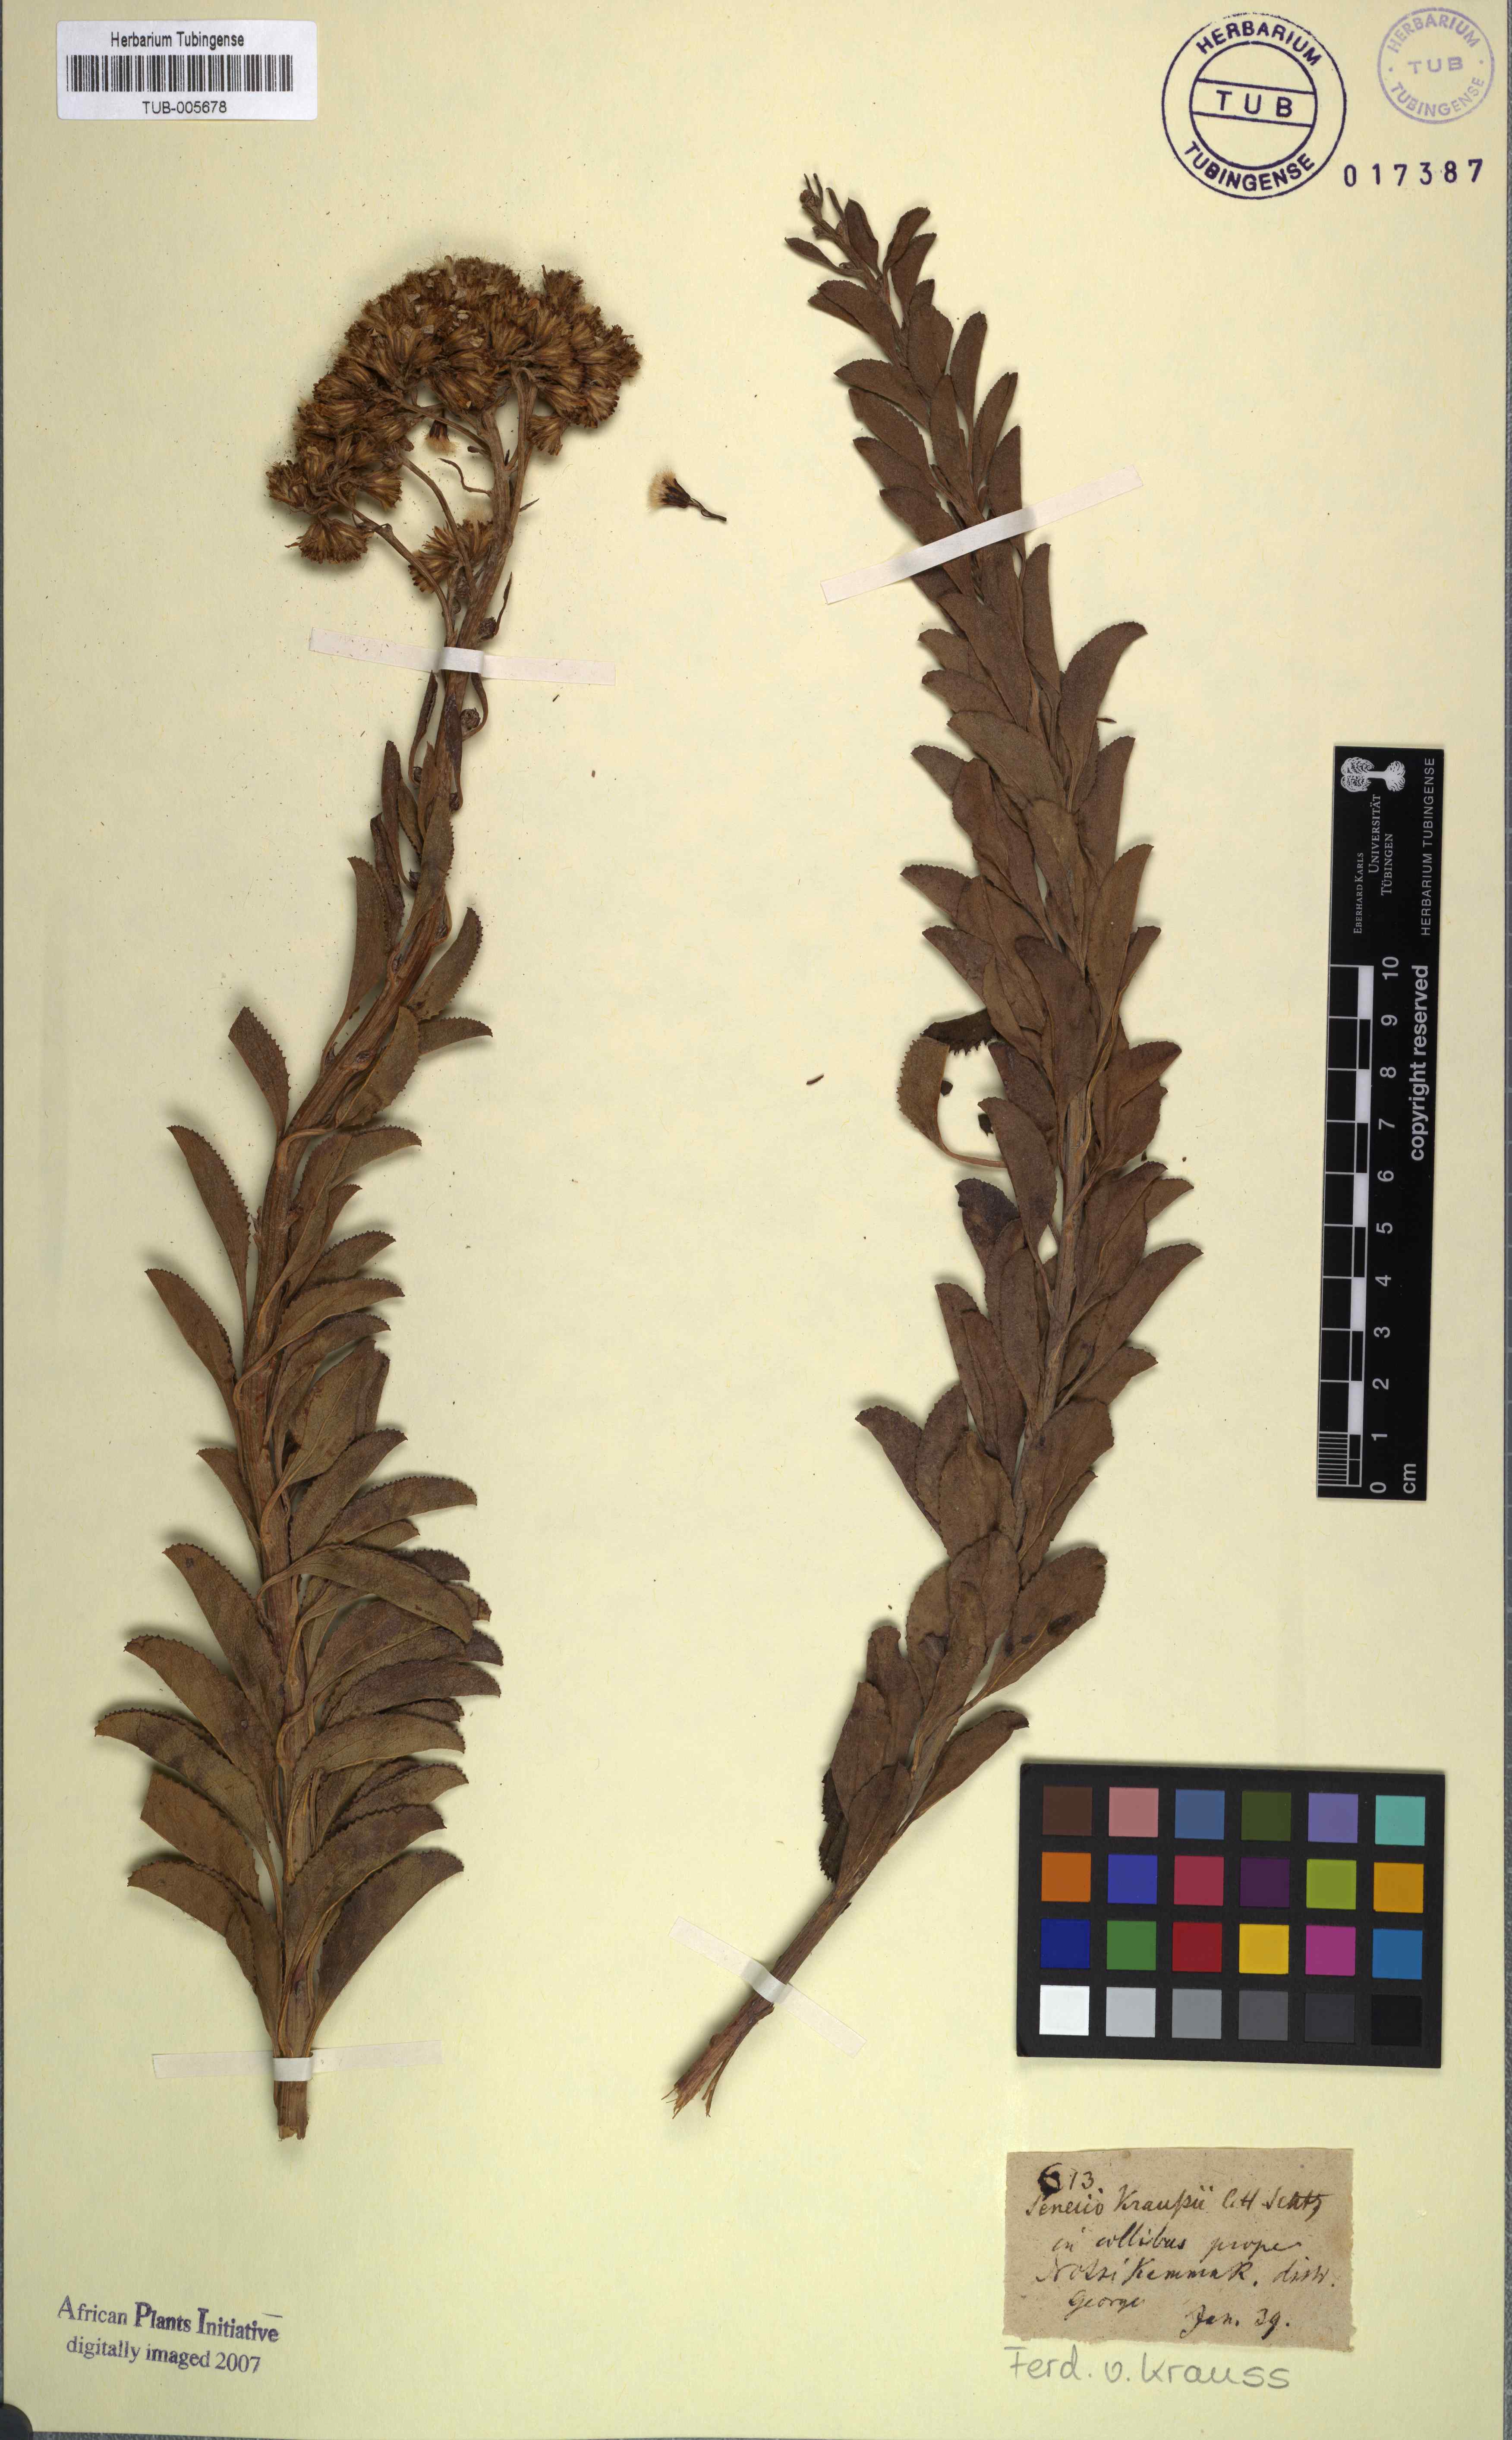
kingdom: Plantae
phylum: Tracheophyta
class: Magnoliopsida
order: Asterales
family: Asteraceae
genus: Hertia
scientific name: Hertia kraussii
